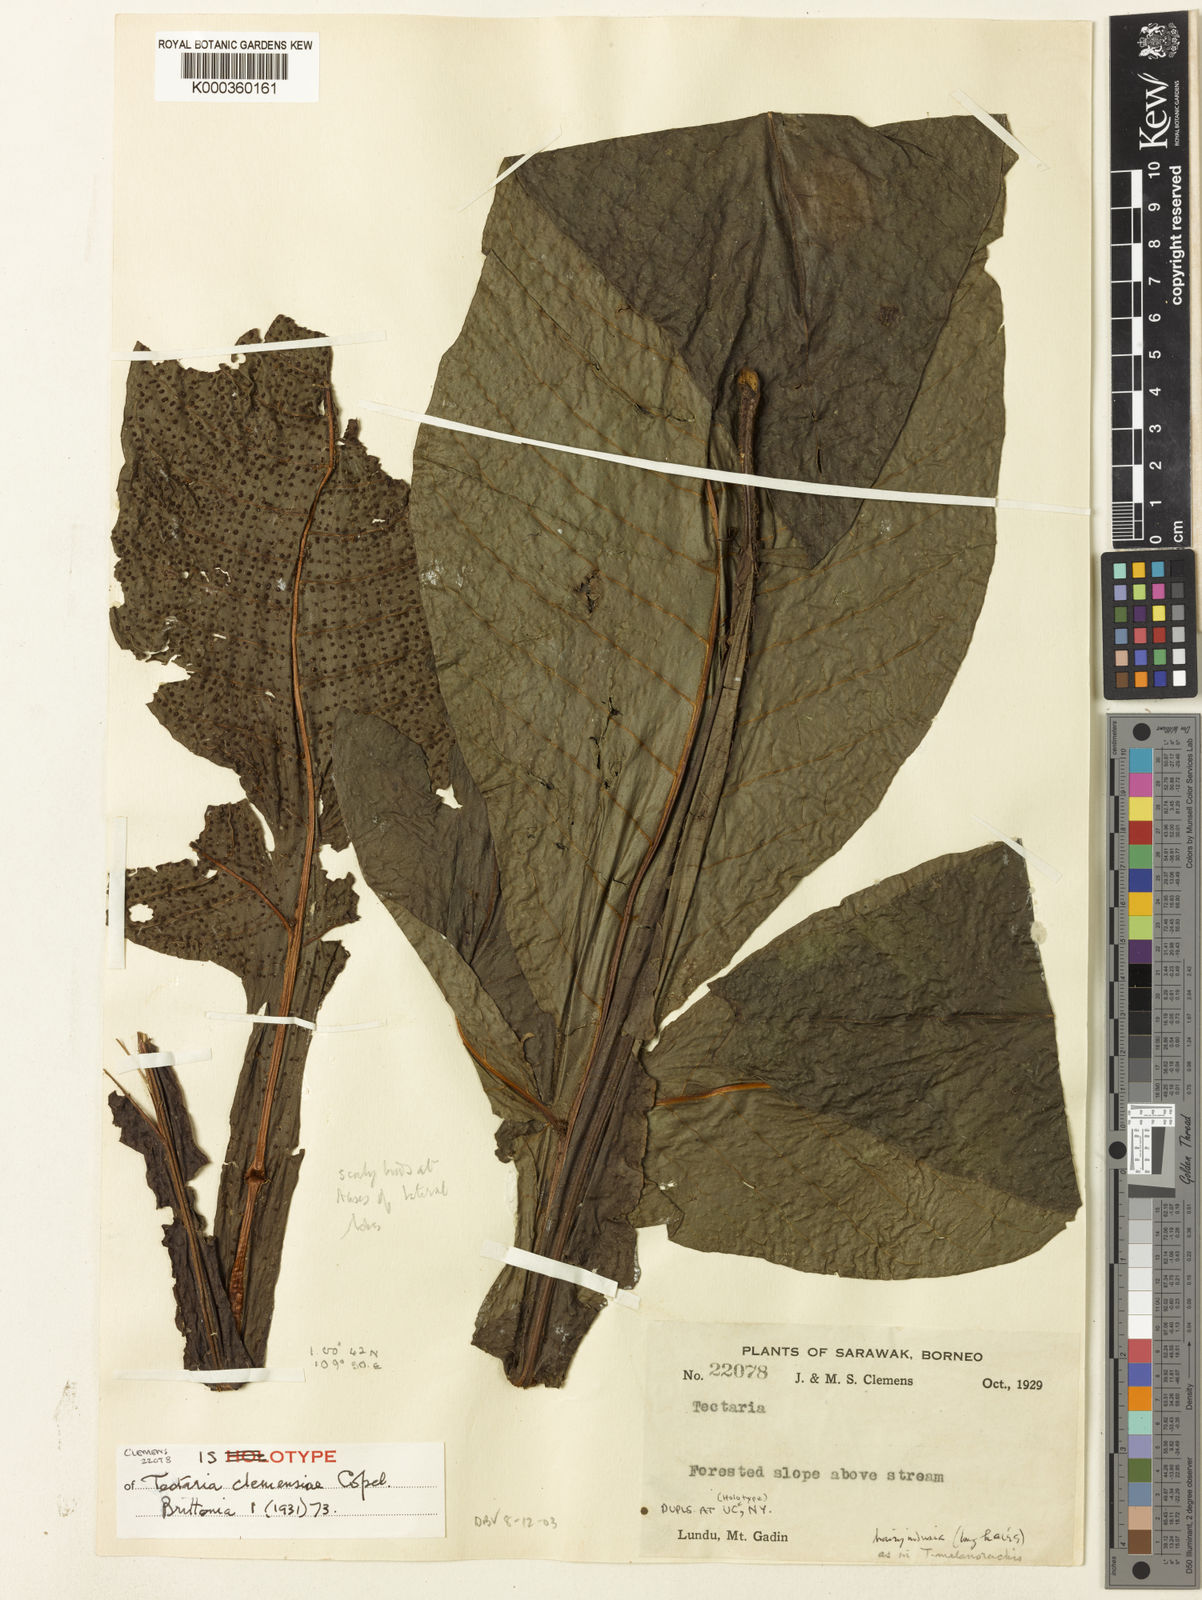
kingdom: Plantae
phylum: Tracheophyta
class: Polypodiopsida
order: Polypodiales
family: Tectariaceae
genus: Tectaria
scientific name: Tectaria tricuspis
